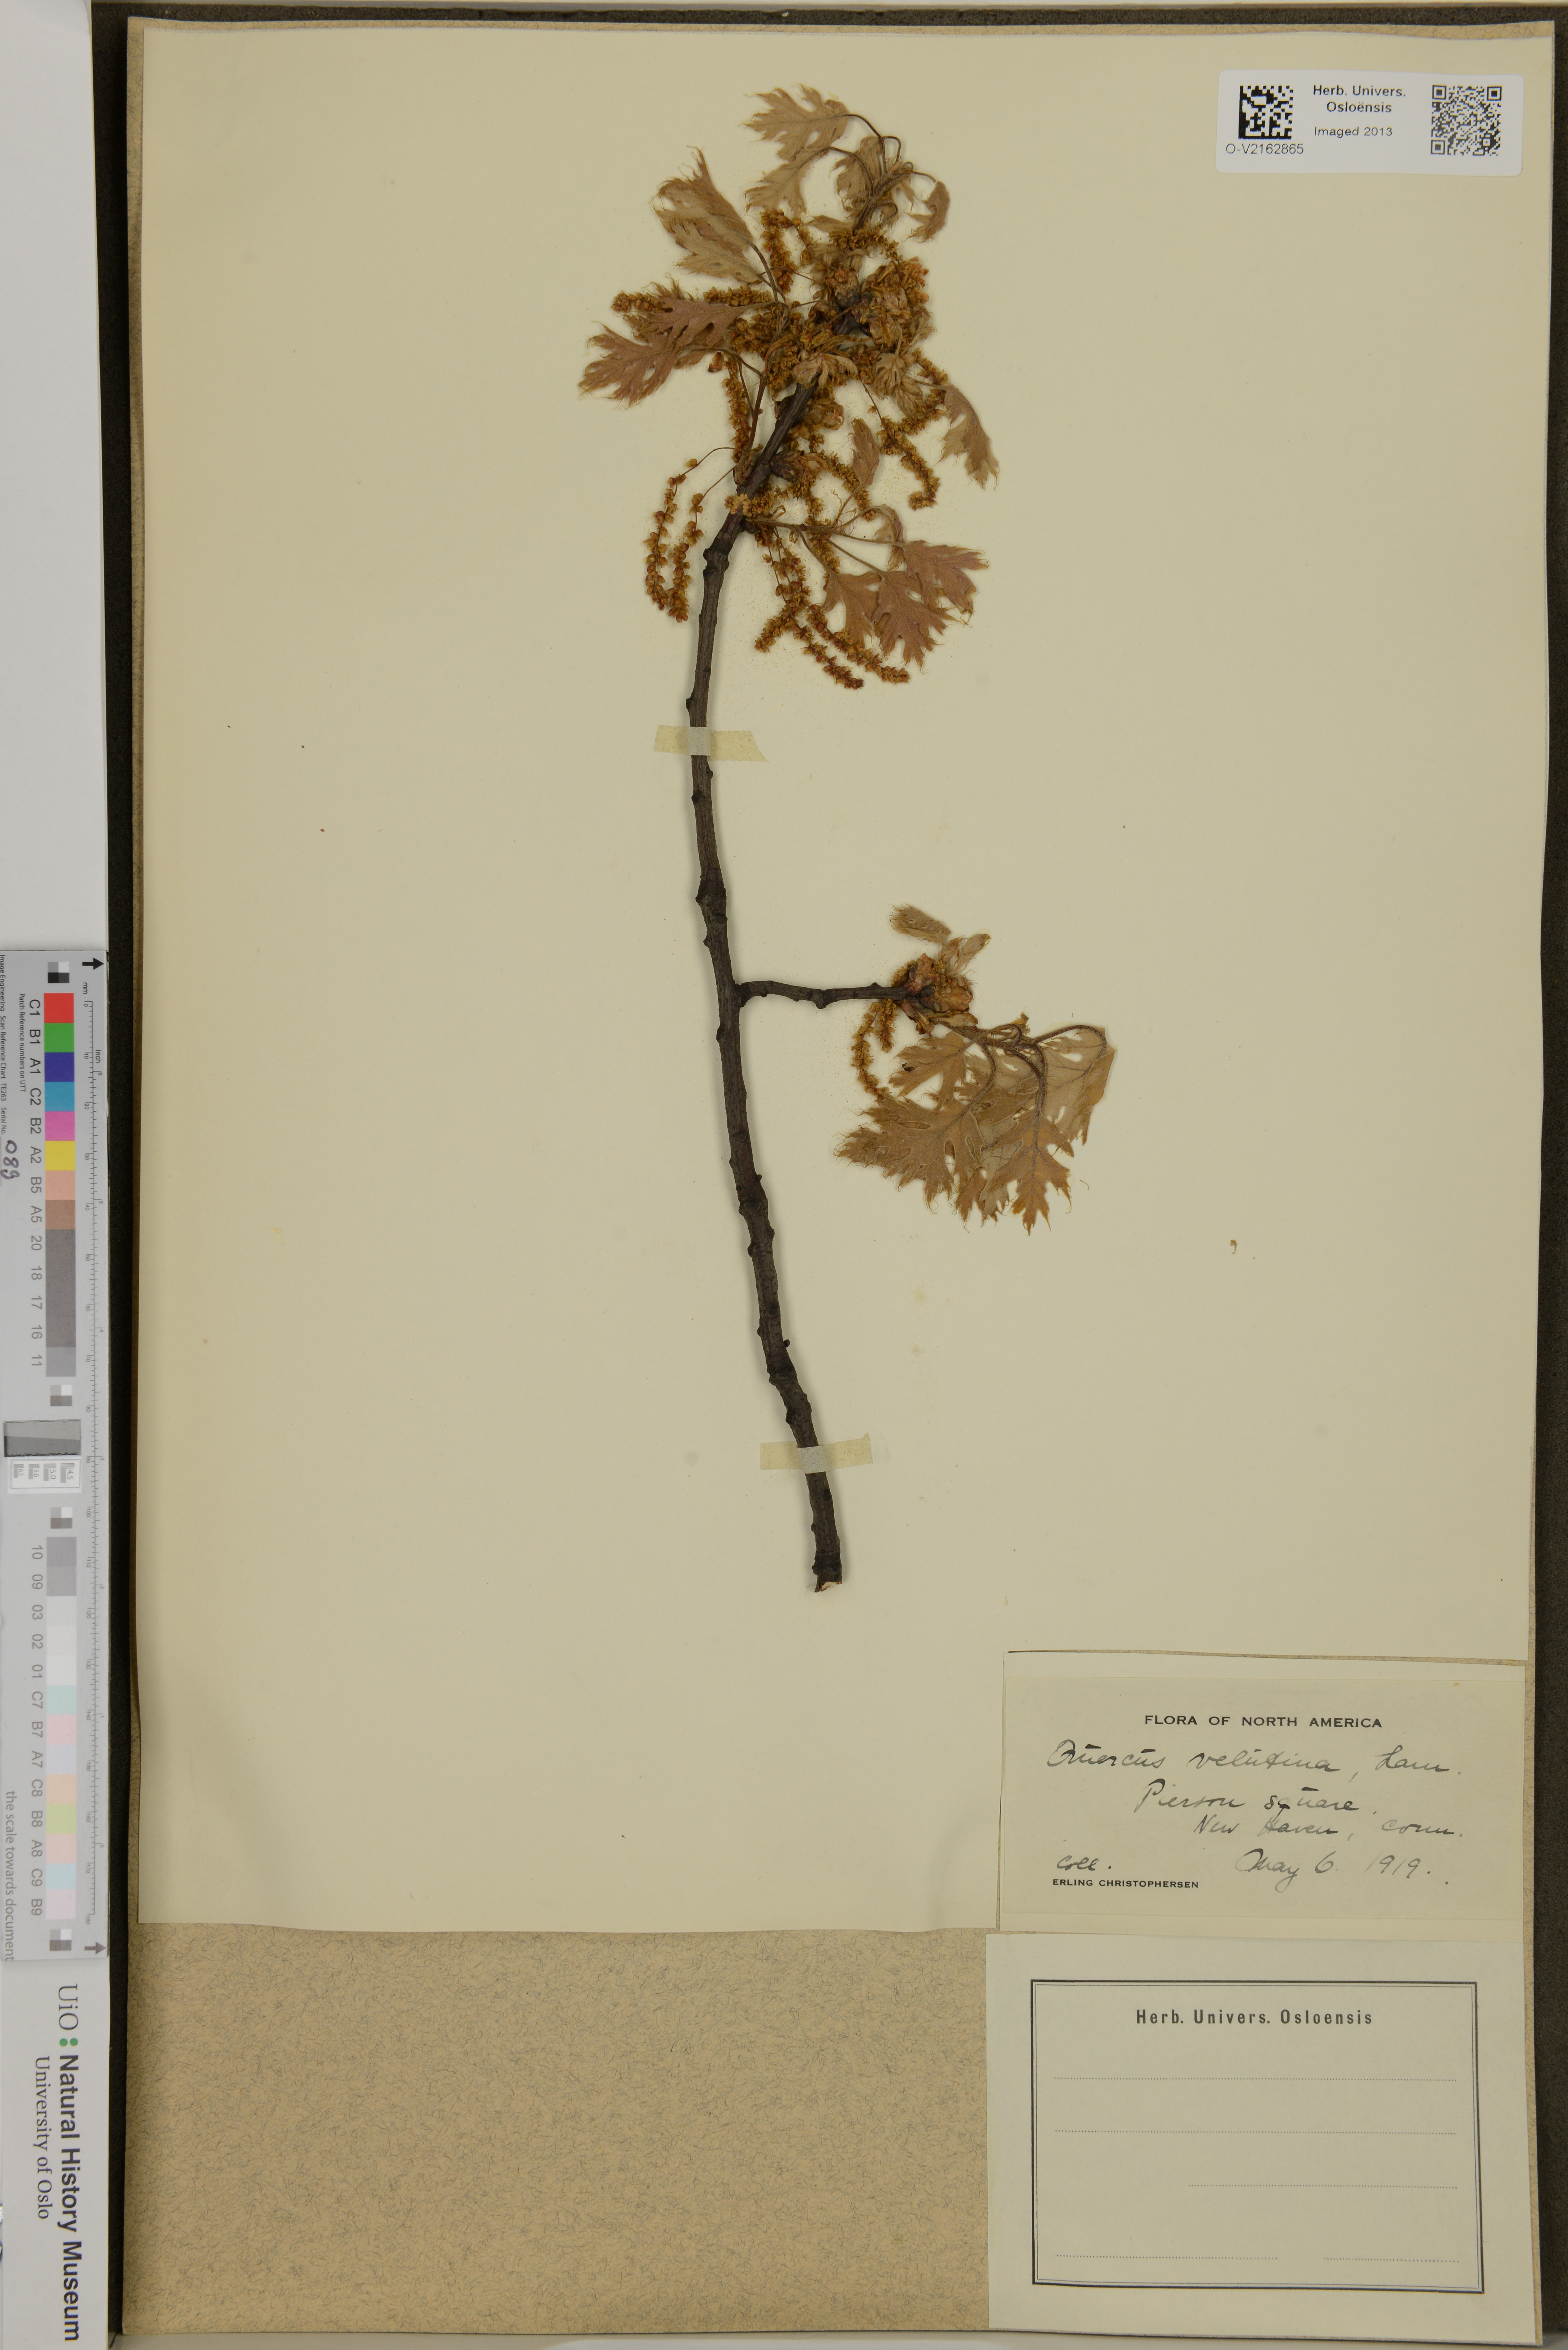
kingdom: Plantae
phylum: Tracheophyta
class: Magnoliopsida
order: Fagales
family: Fagaceae
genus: Quercus
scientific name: Quercus velutina
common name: Black oak
